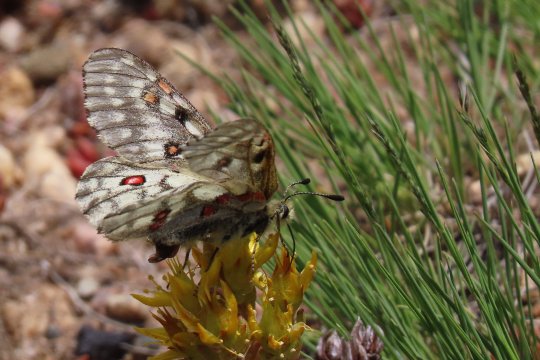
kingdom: Animalia
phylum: Arthropoda
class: Insecta
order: Lepidoptera
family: Papilionidae
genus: Parnassius
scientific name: Parnassius smintheus
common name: Rocky Mountain Parnassian
